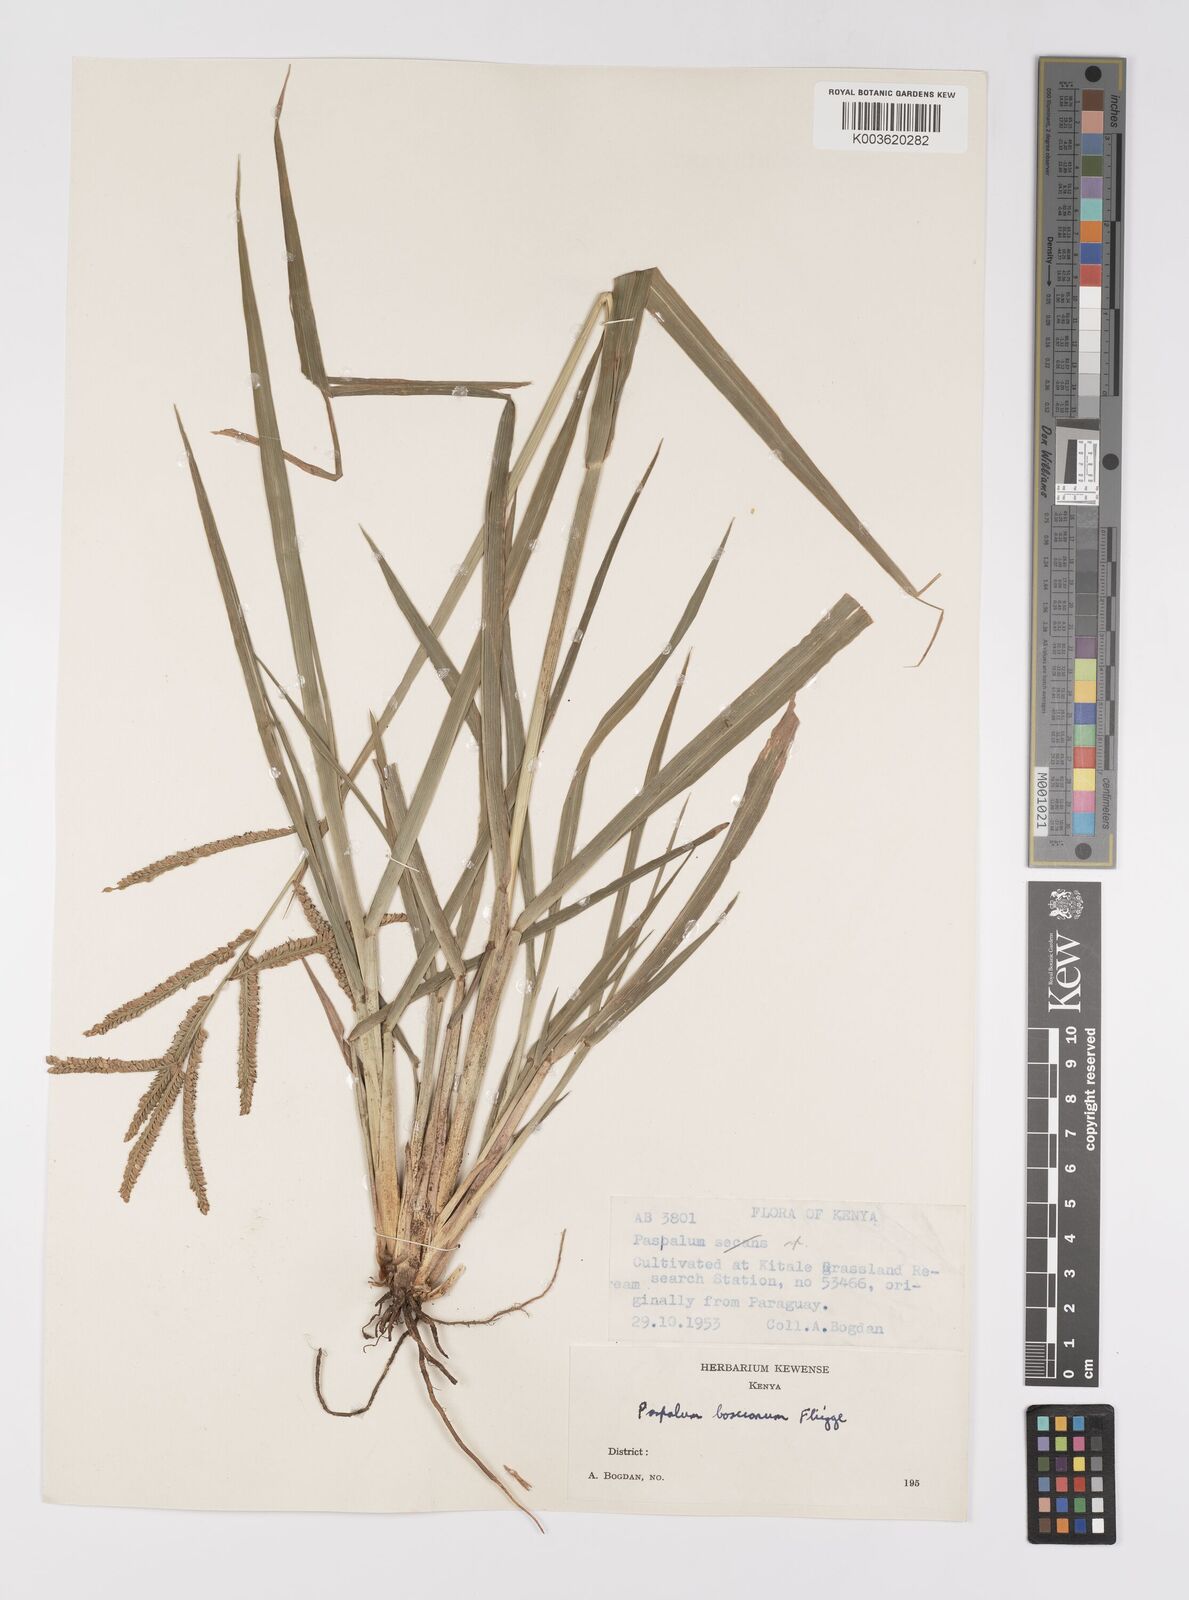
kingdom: Plantae
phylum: Tracheophyta
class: Liliopsida
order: Poales
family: Poaceae
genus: Paspalum
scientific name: Paspalum scrobiculatum
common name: Kodo millet
